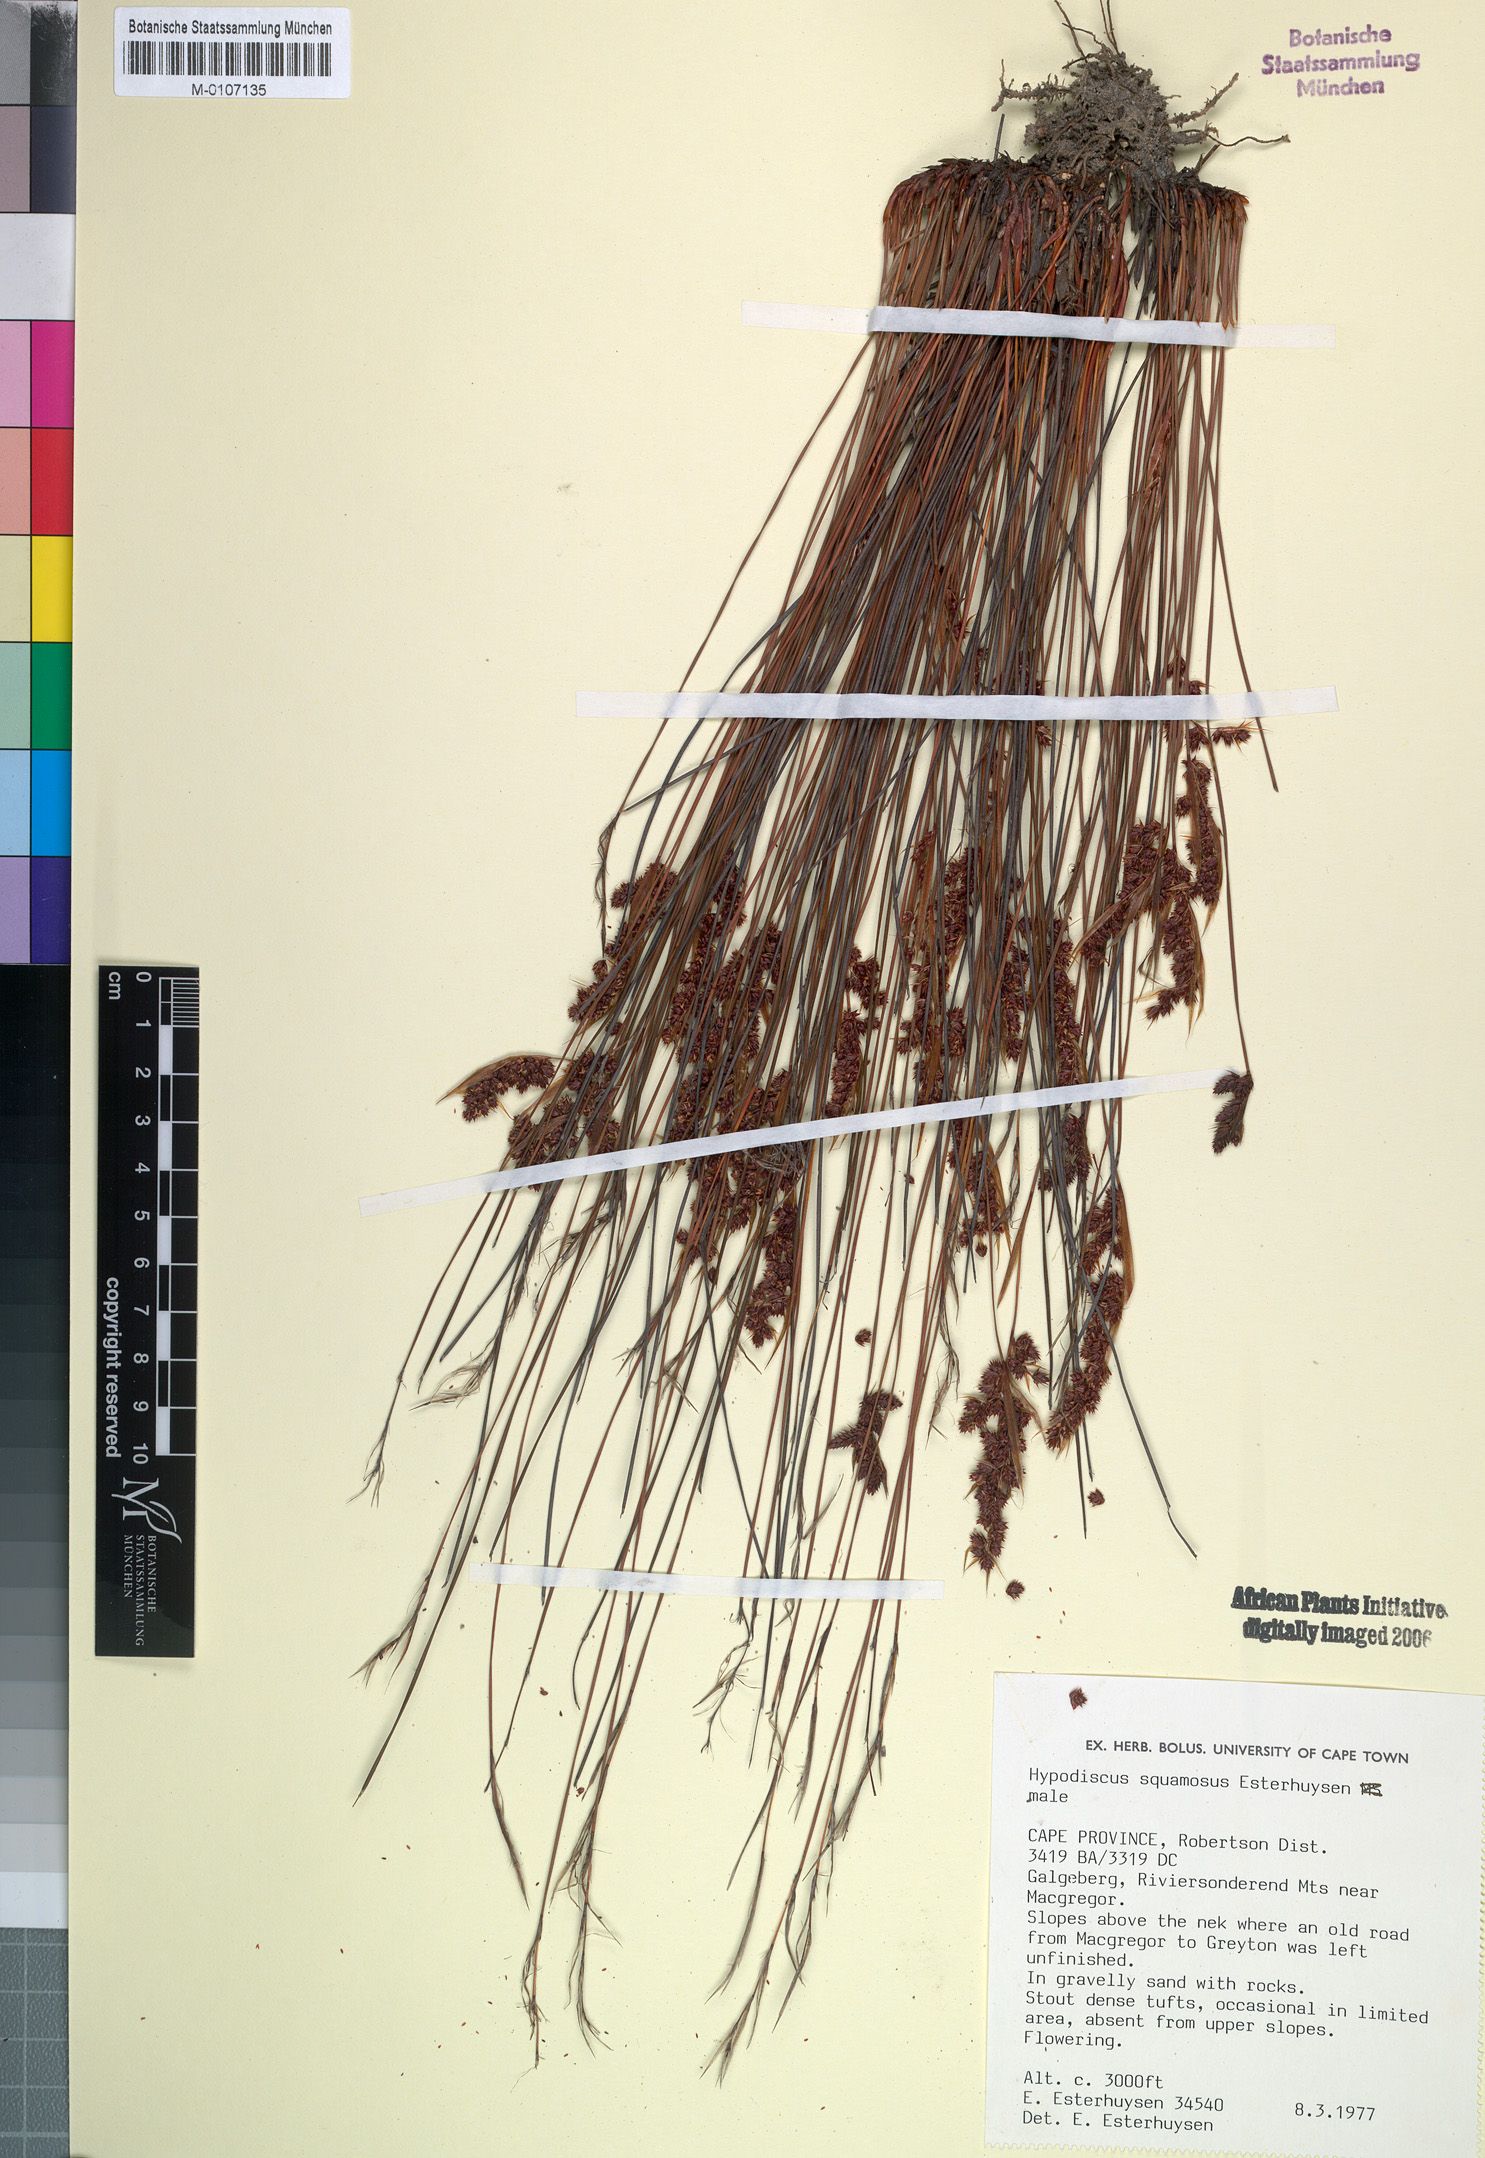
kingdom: Plantae
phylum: Tracheophyta
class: Liliopsida
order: Poales
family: Restionaceae
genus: Hypodiscus
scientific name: Hypodiscus squamosus
